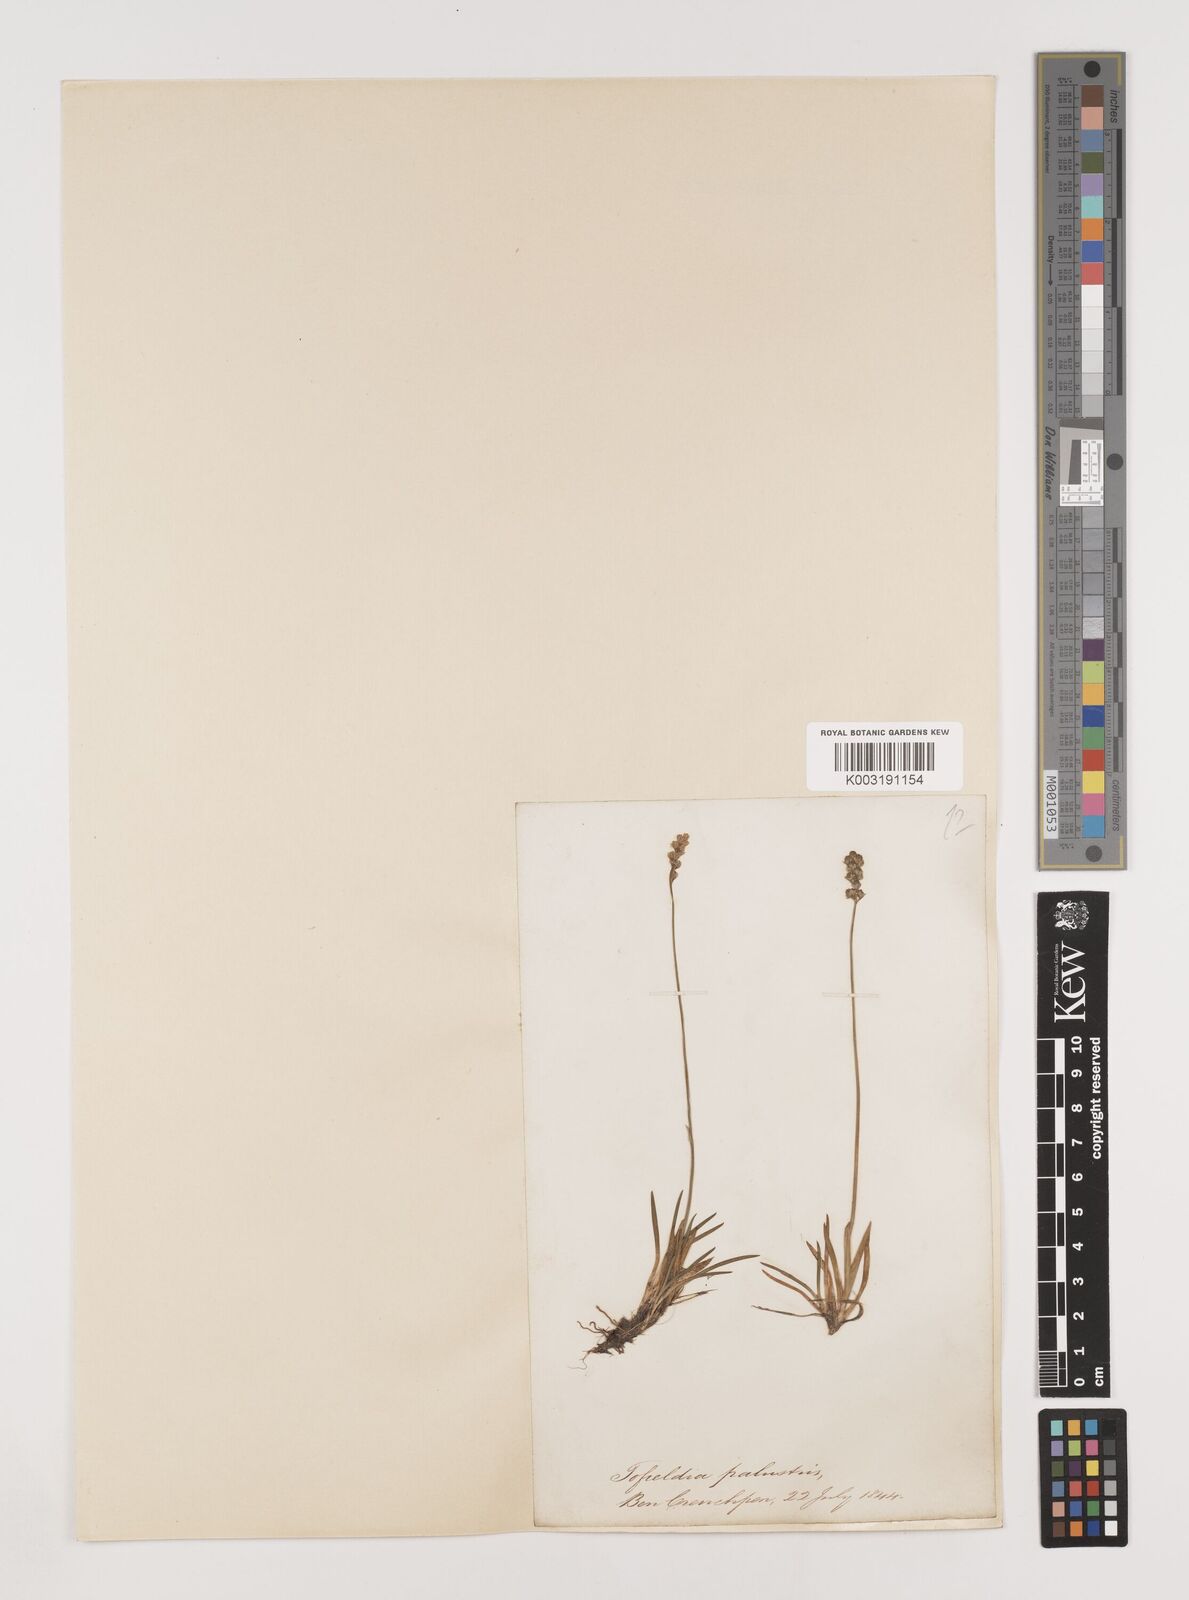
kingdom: Plantae
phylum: Tracheophyta
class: Liliopsida
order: Alismatales
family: Tofieldiaceae
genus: Tofieldia
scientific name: Tofieldia pusilla
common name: Scottish false asphodel
